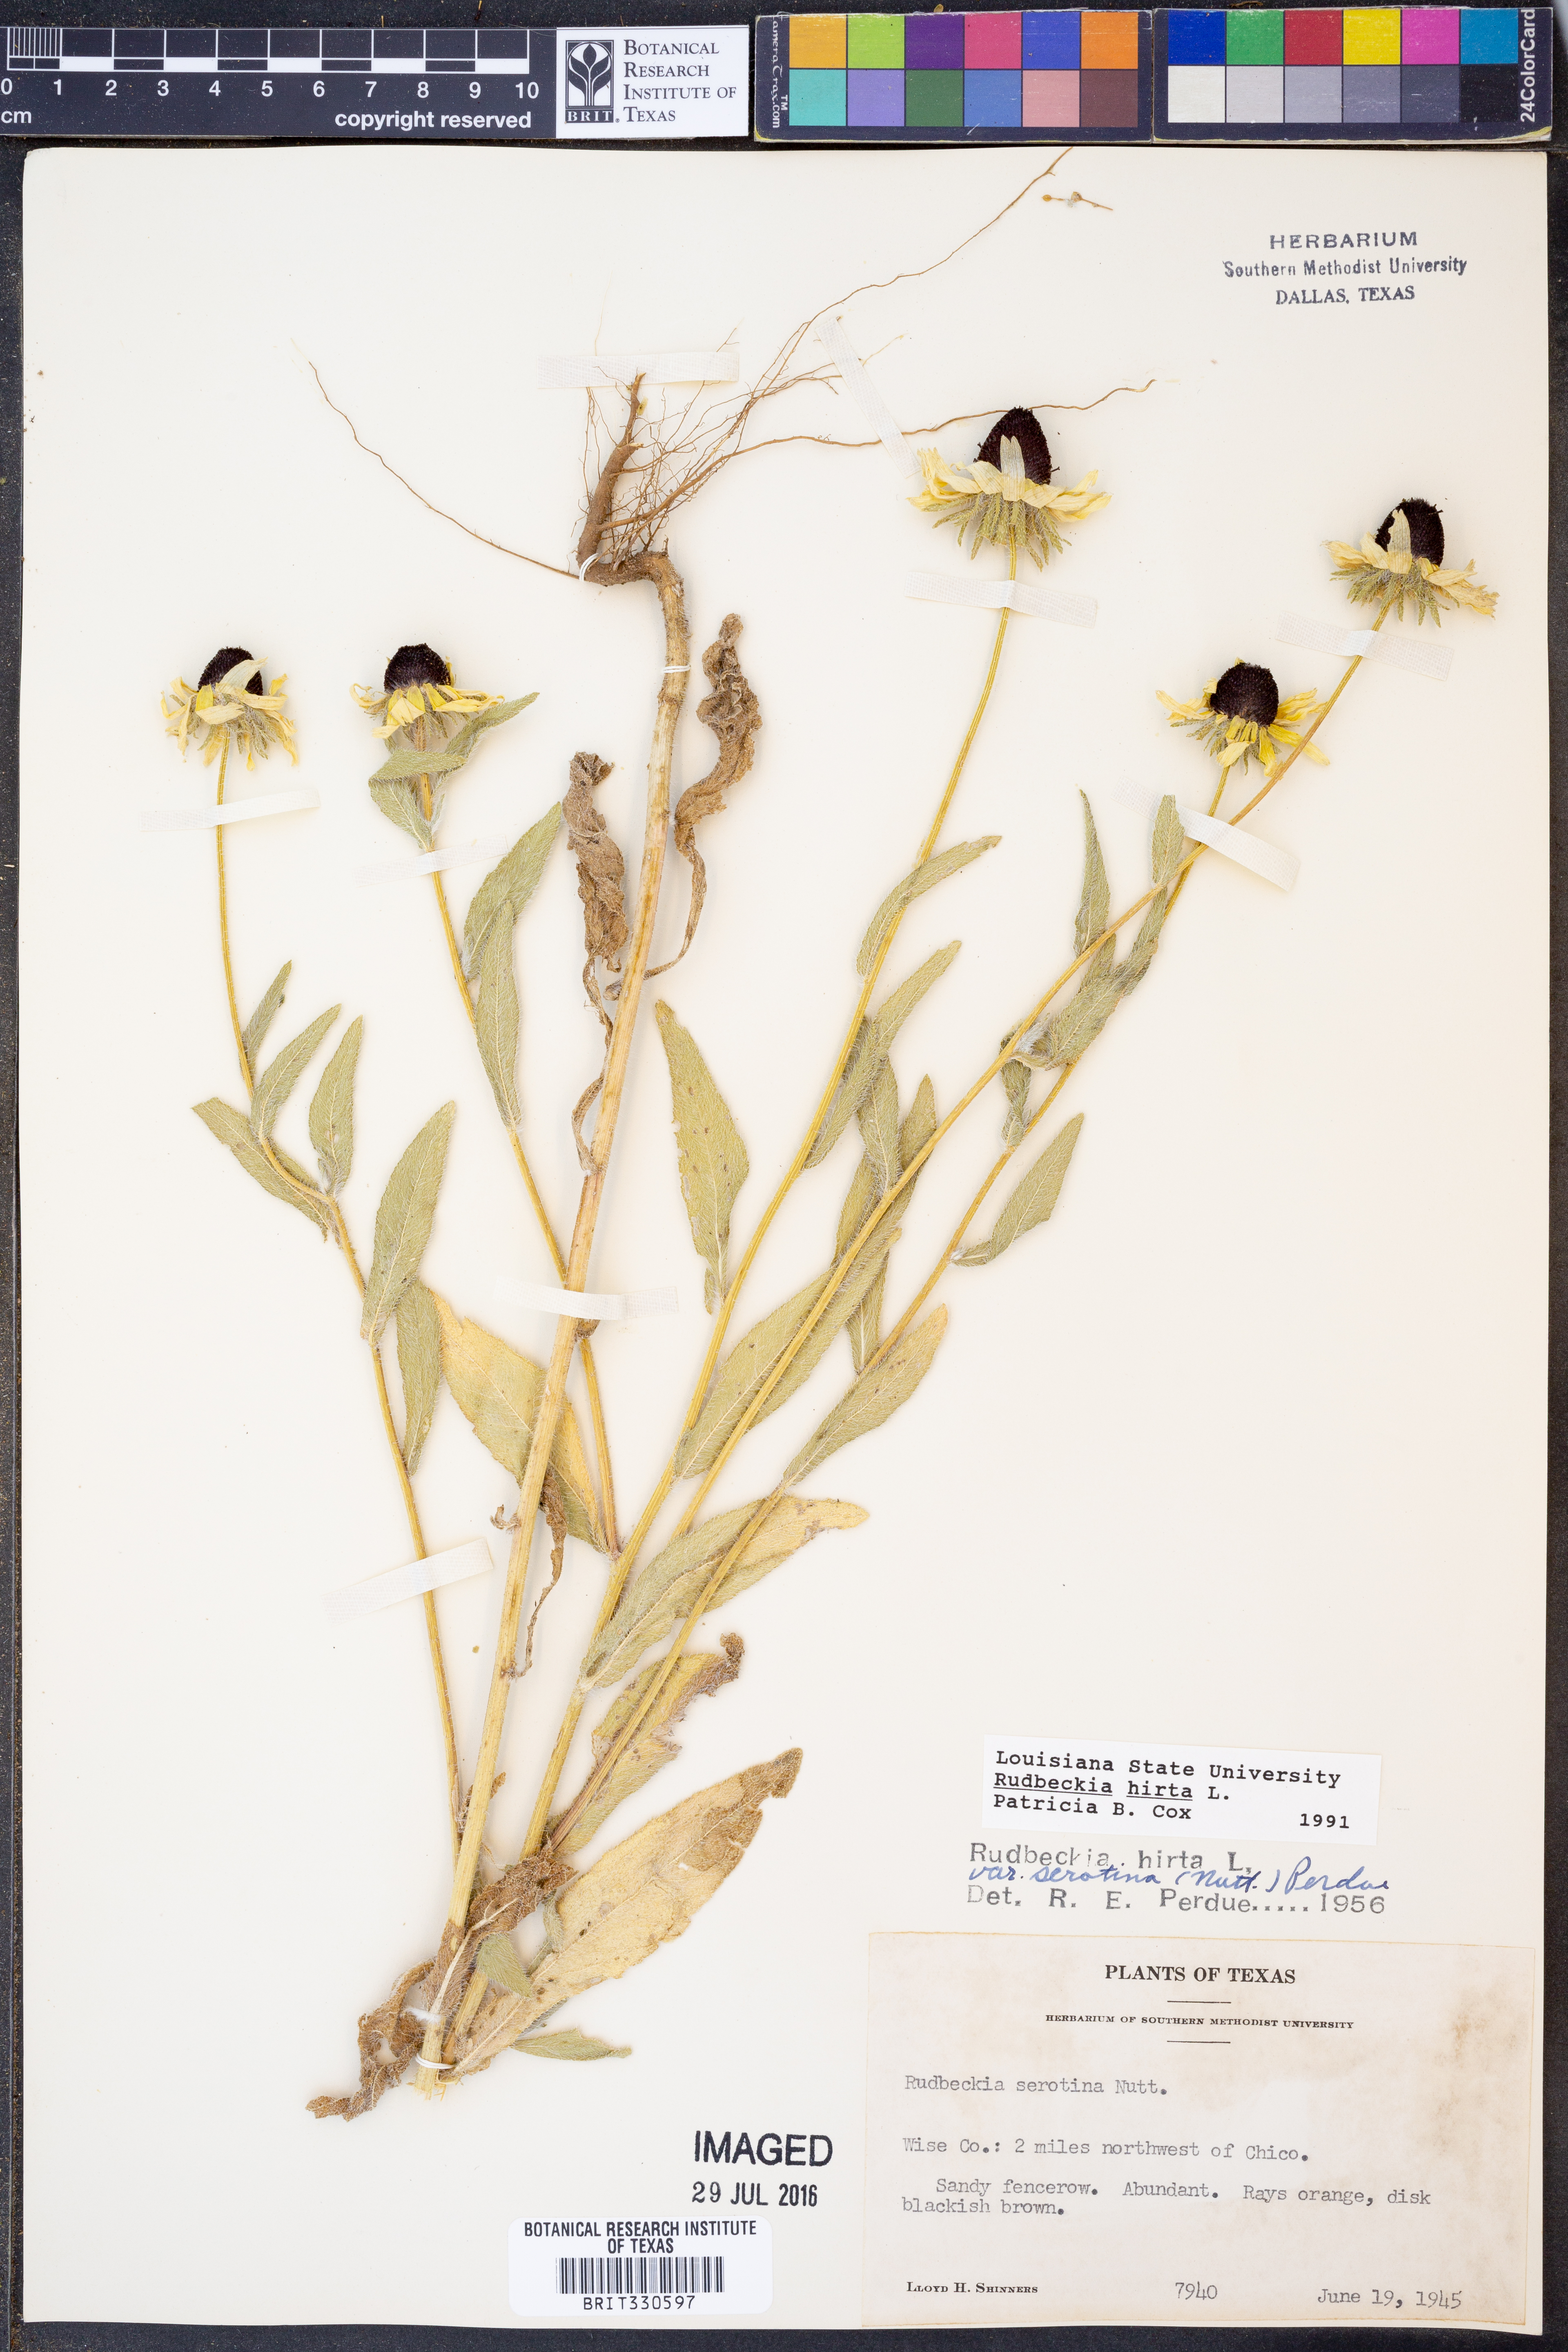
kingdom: Plantae
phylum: Tracheophyta
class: Magnoliopsida
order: Asterales
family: Asteraceae
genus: Rudbeckia
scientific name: Rudbeckia hirta
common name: Black-eyed-susan
